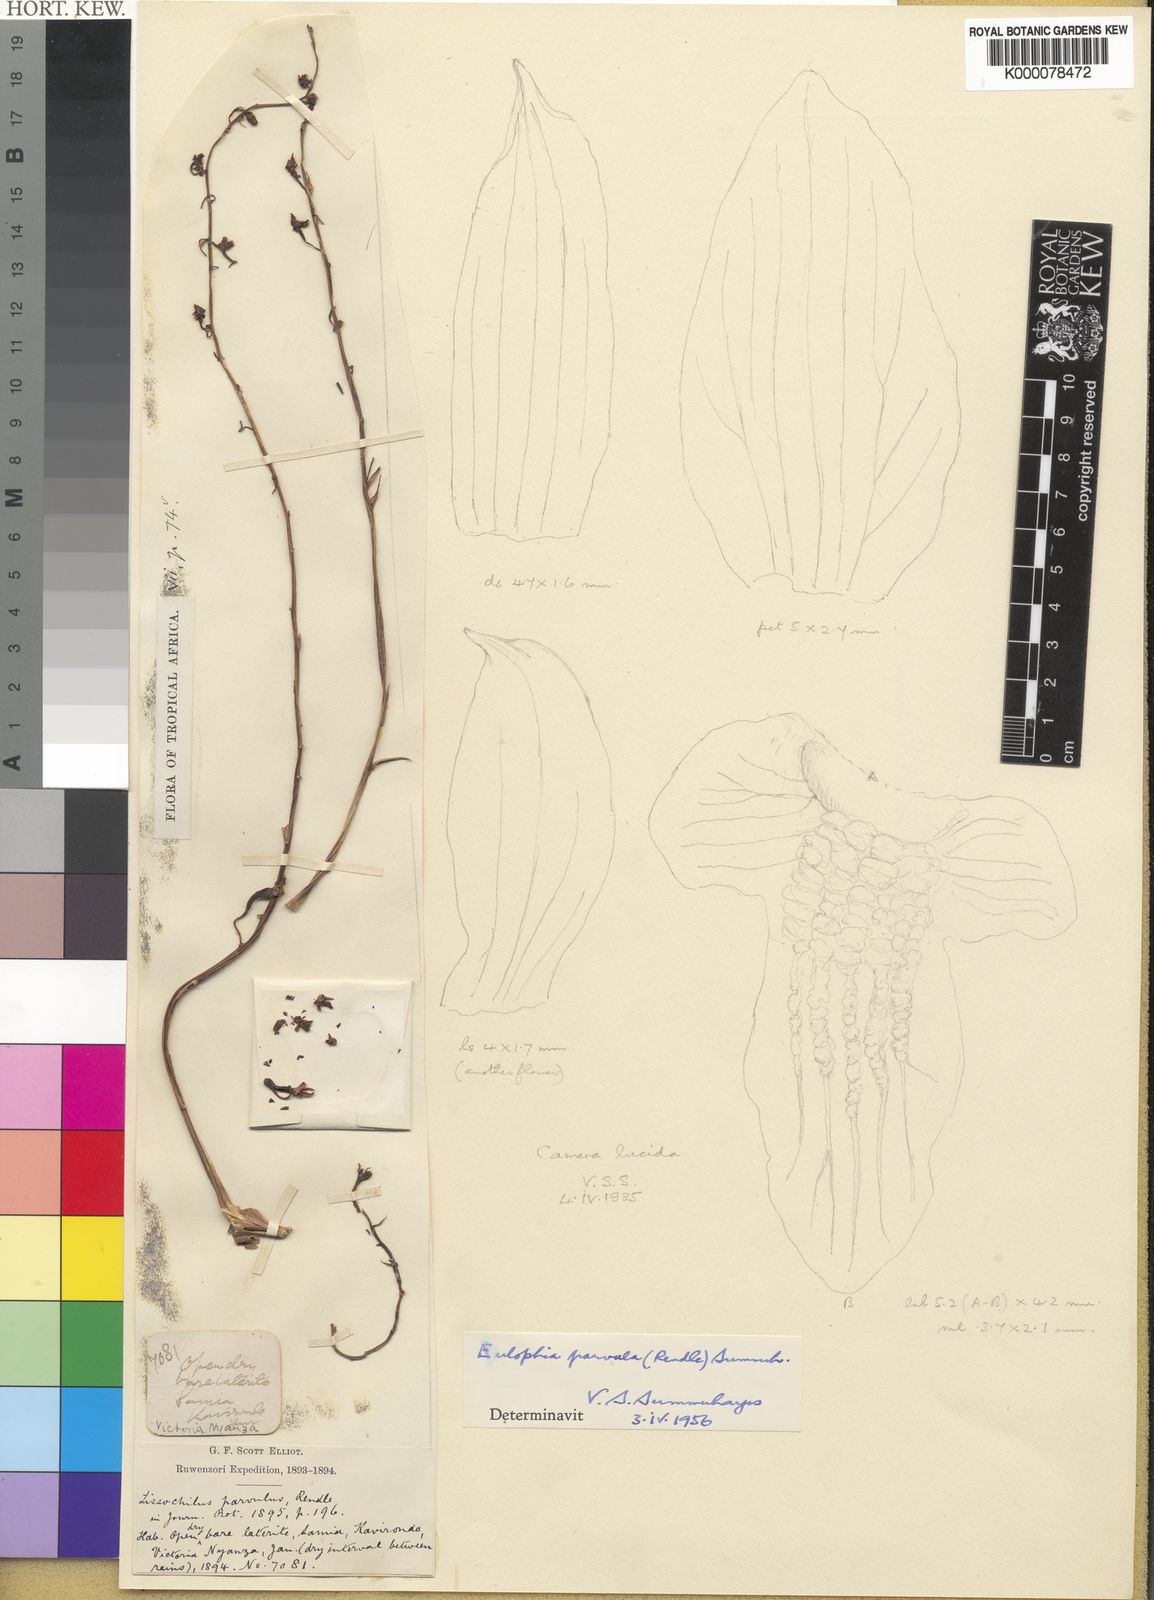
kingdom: Plantae
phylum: Tracheophyta
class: Liliopsida
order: Asparagales
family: Orchidaceae
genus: Eulophia
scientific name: Eulophia parvula
